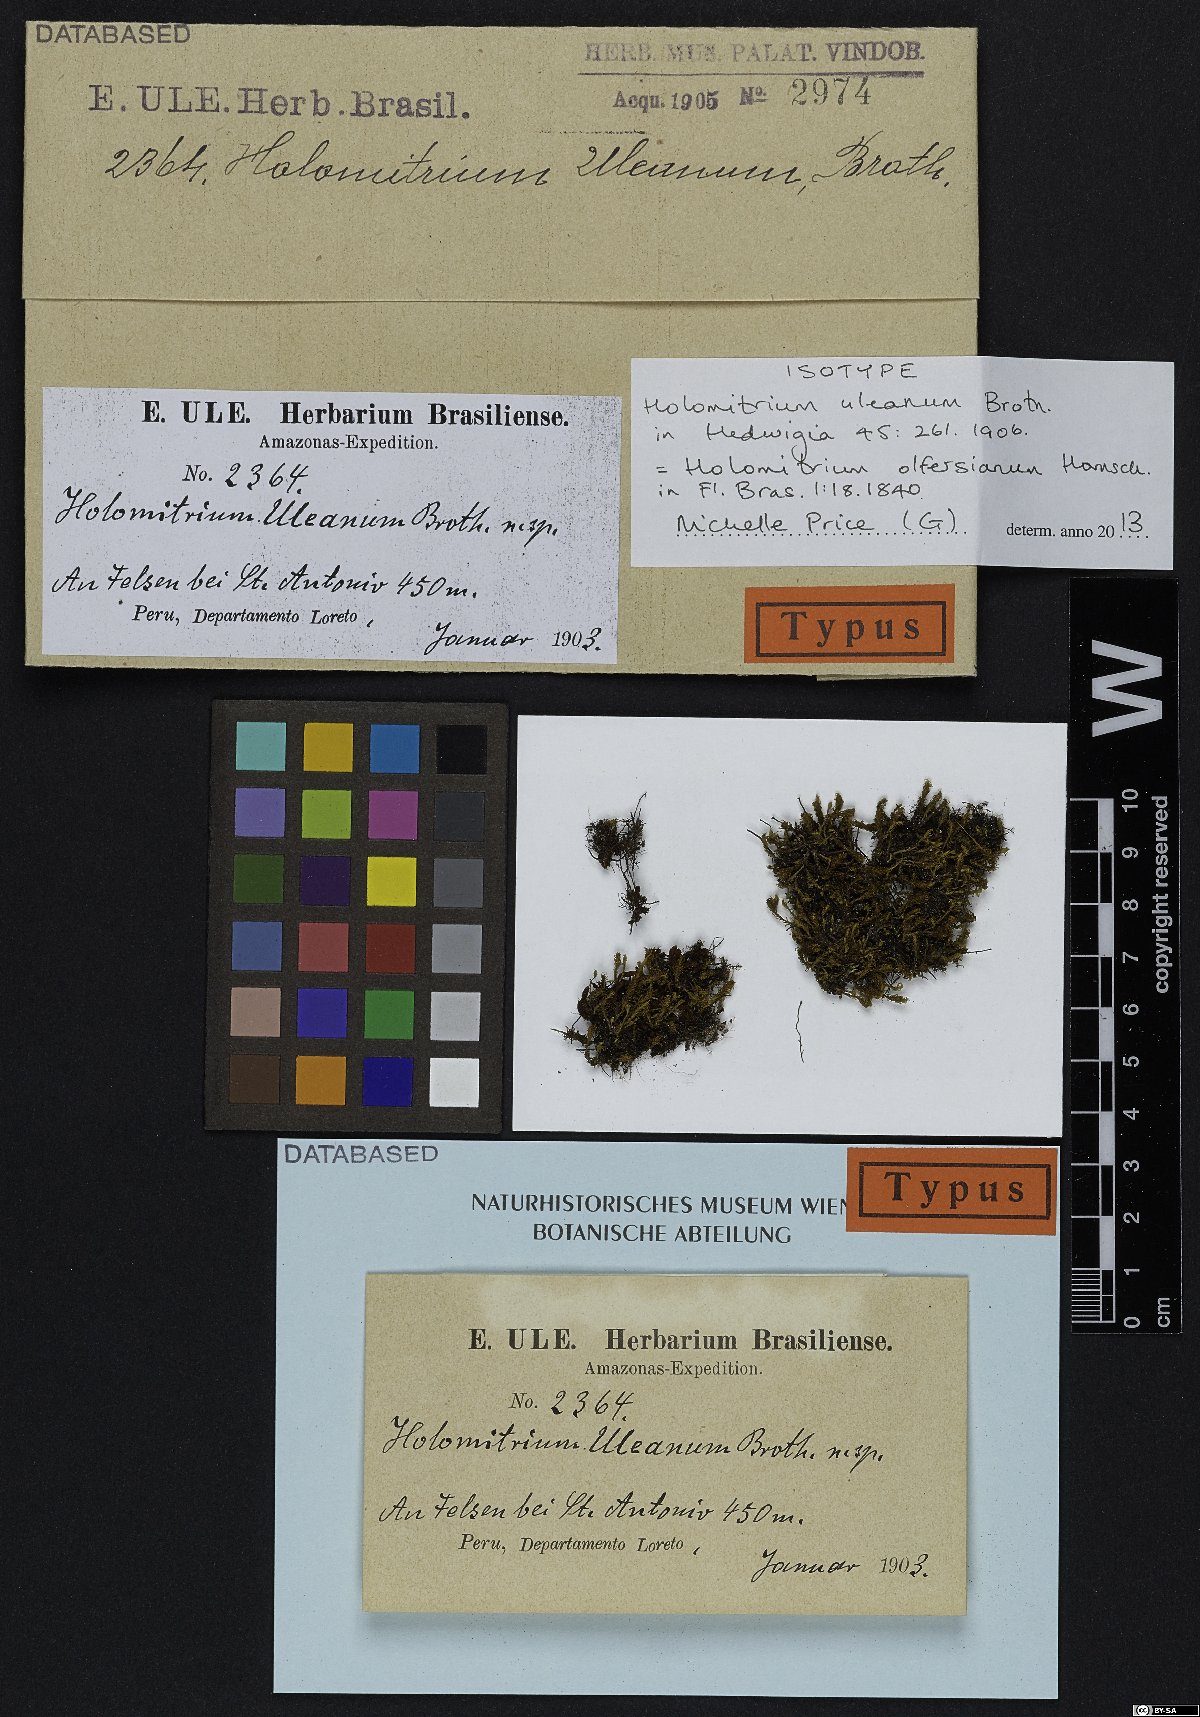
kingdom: Plantae
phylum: Bryophyta
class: Bryopsida
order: Dicranales
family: Dicranaceae
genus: Holomitrium
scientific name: Holomitrium olfersianum
